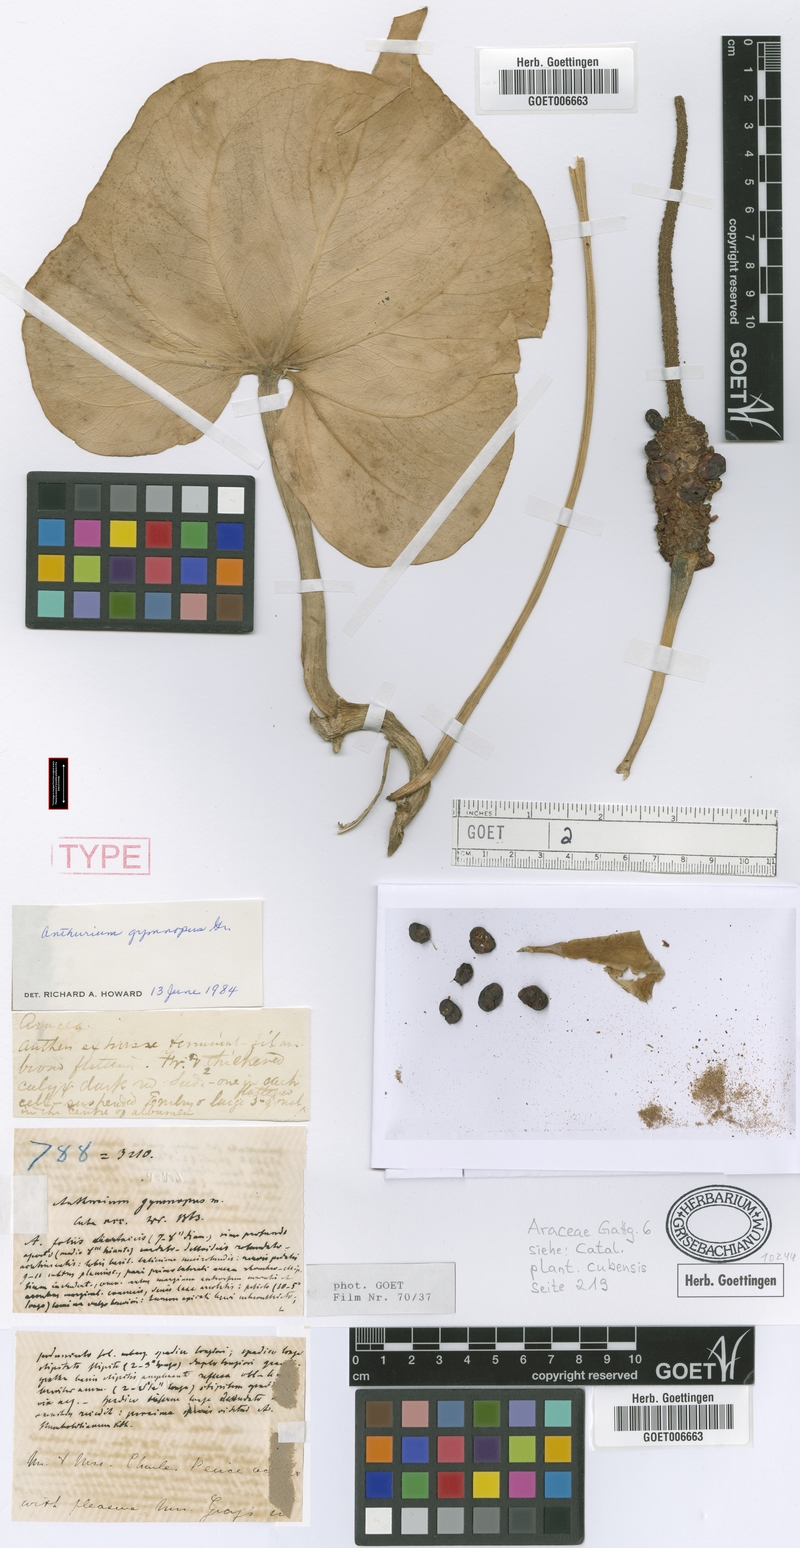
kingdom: Plantae
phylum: Tracheophyta
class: Liliopsida
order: Alismatales
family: Araceae
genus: Anthurium
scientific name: Anthurium gymnopus
